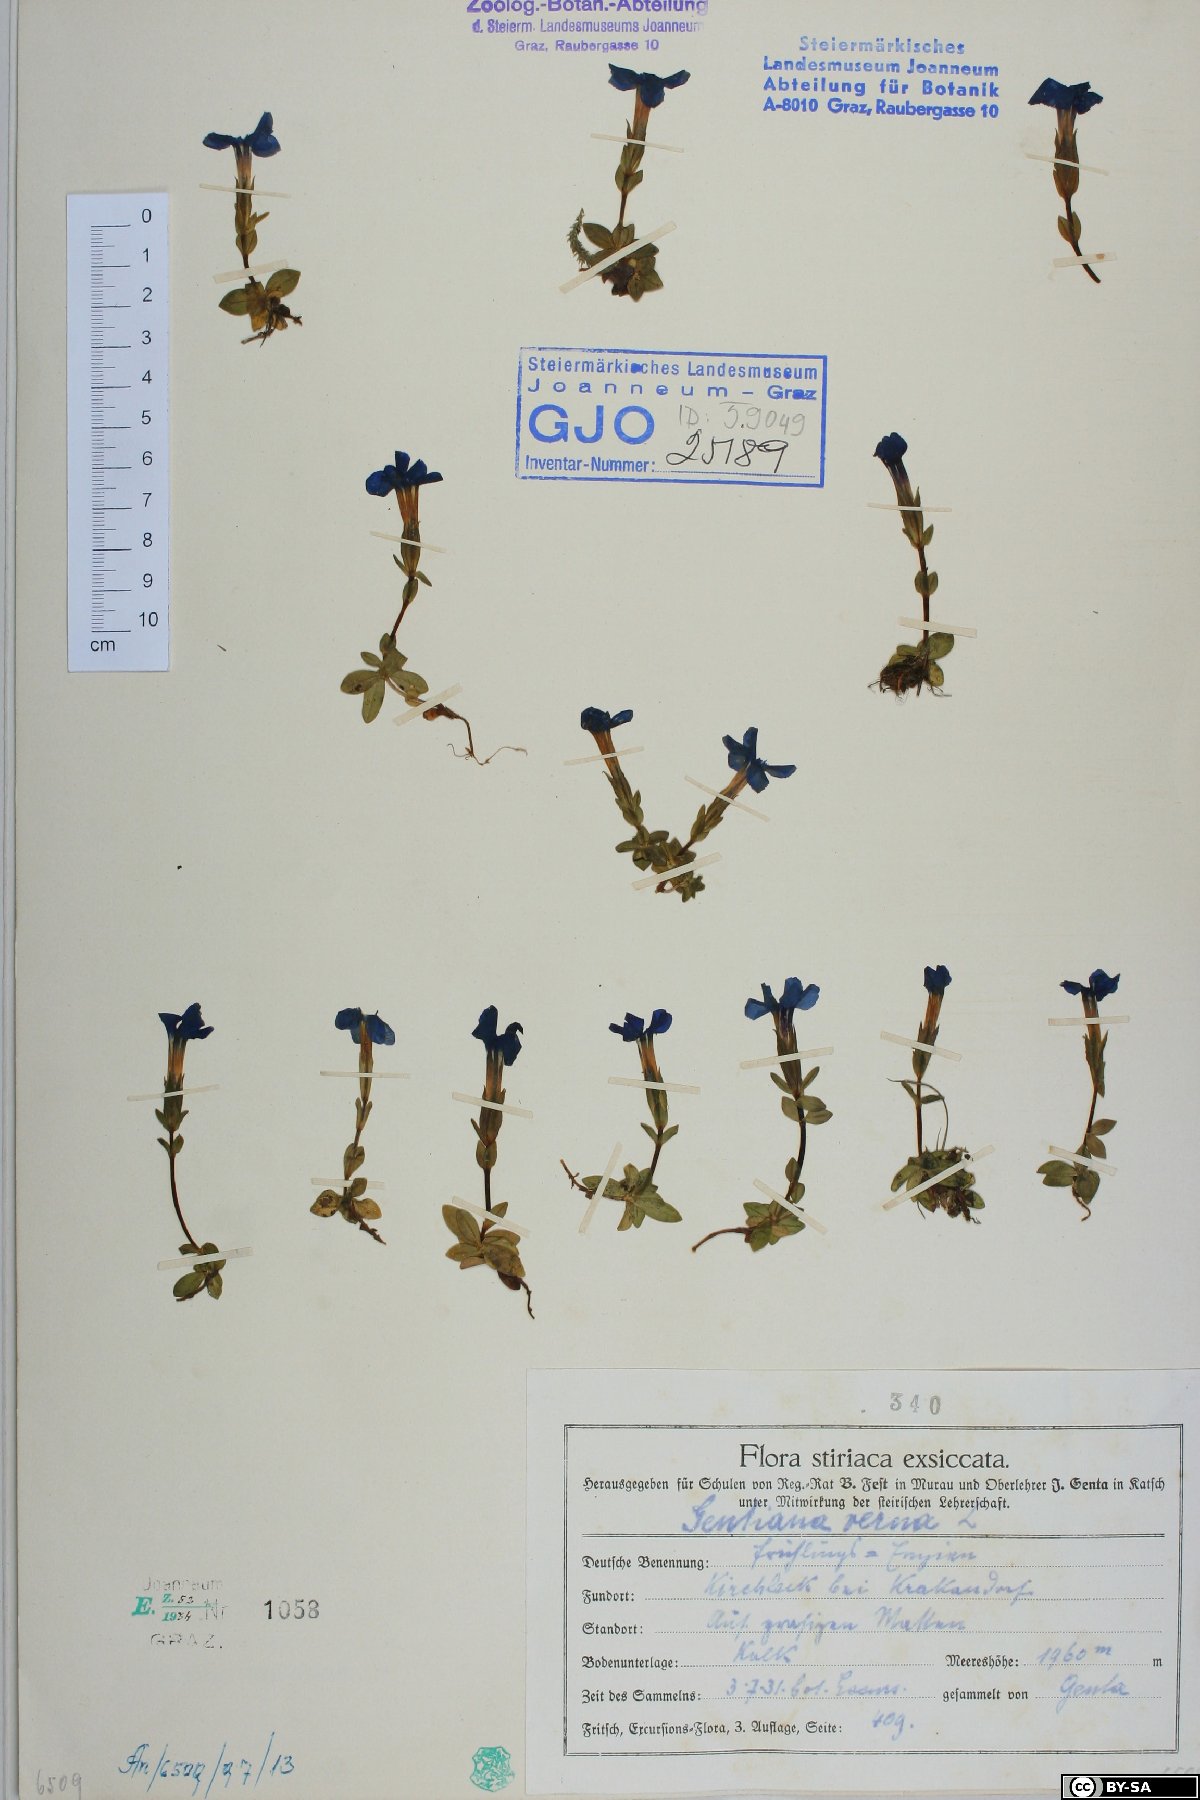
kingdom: Plantae
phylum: Tracheophyta
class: Magnoliopsida
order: Gentianales
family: Gentianaceae
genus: Gentiana
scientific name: Gentiana verna
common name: Spring gentian
